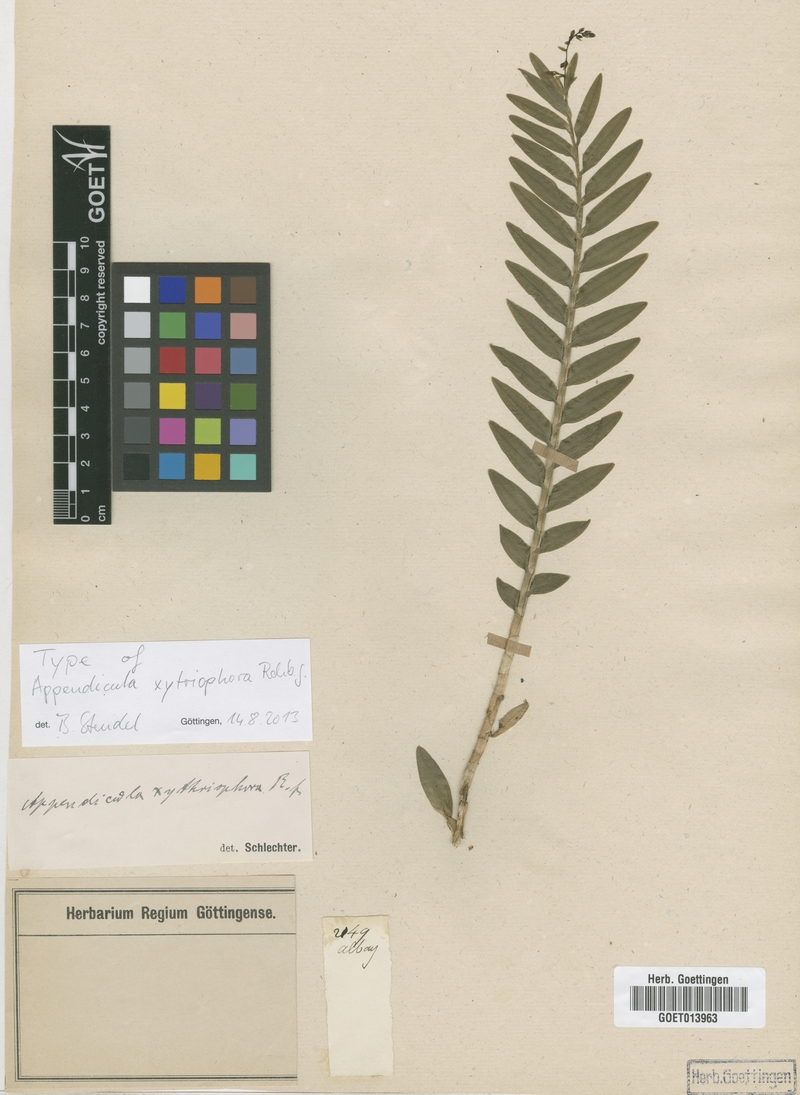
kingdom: Plantae
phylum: Tracheophyta
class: Liliopsida
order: Asparagales
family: Orchidaceae
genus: Appendicula
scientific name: Appendicula xytriophora
